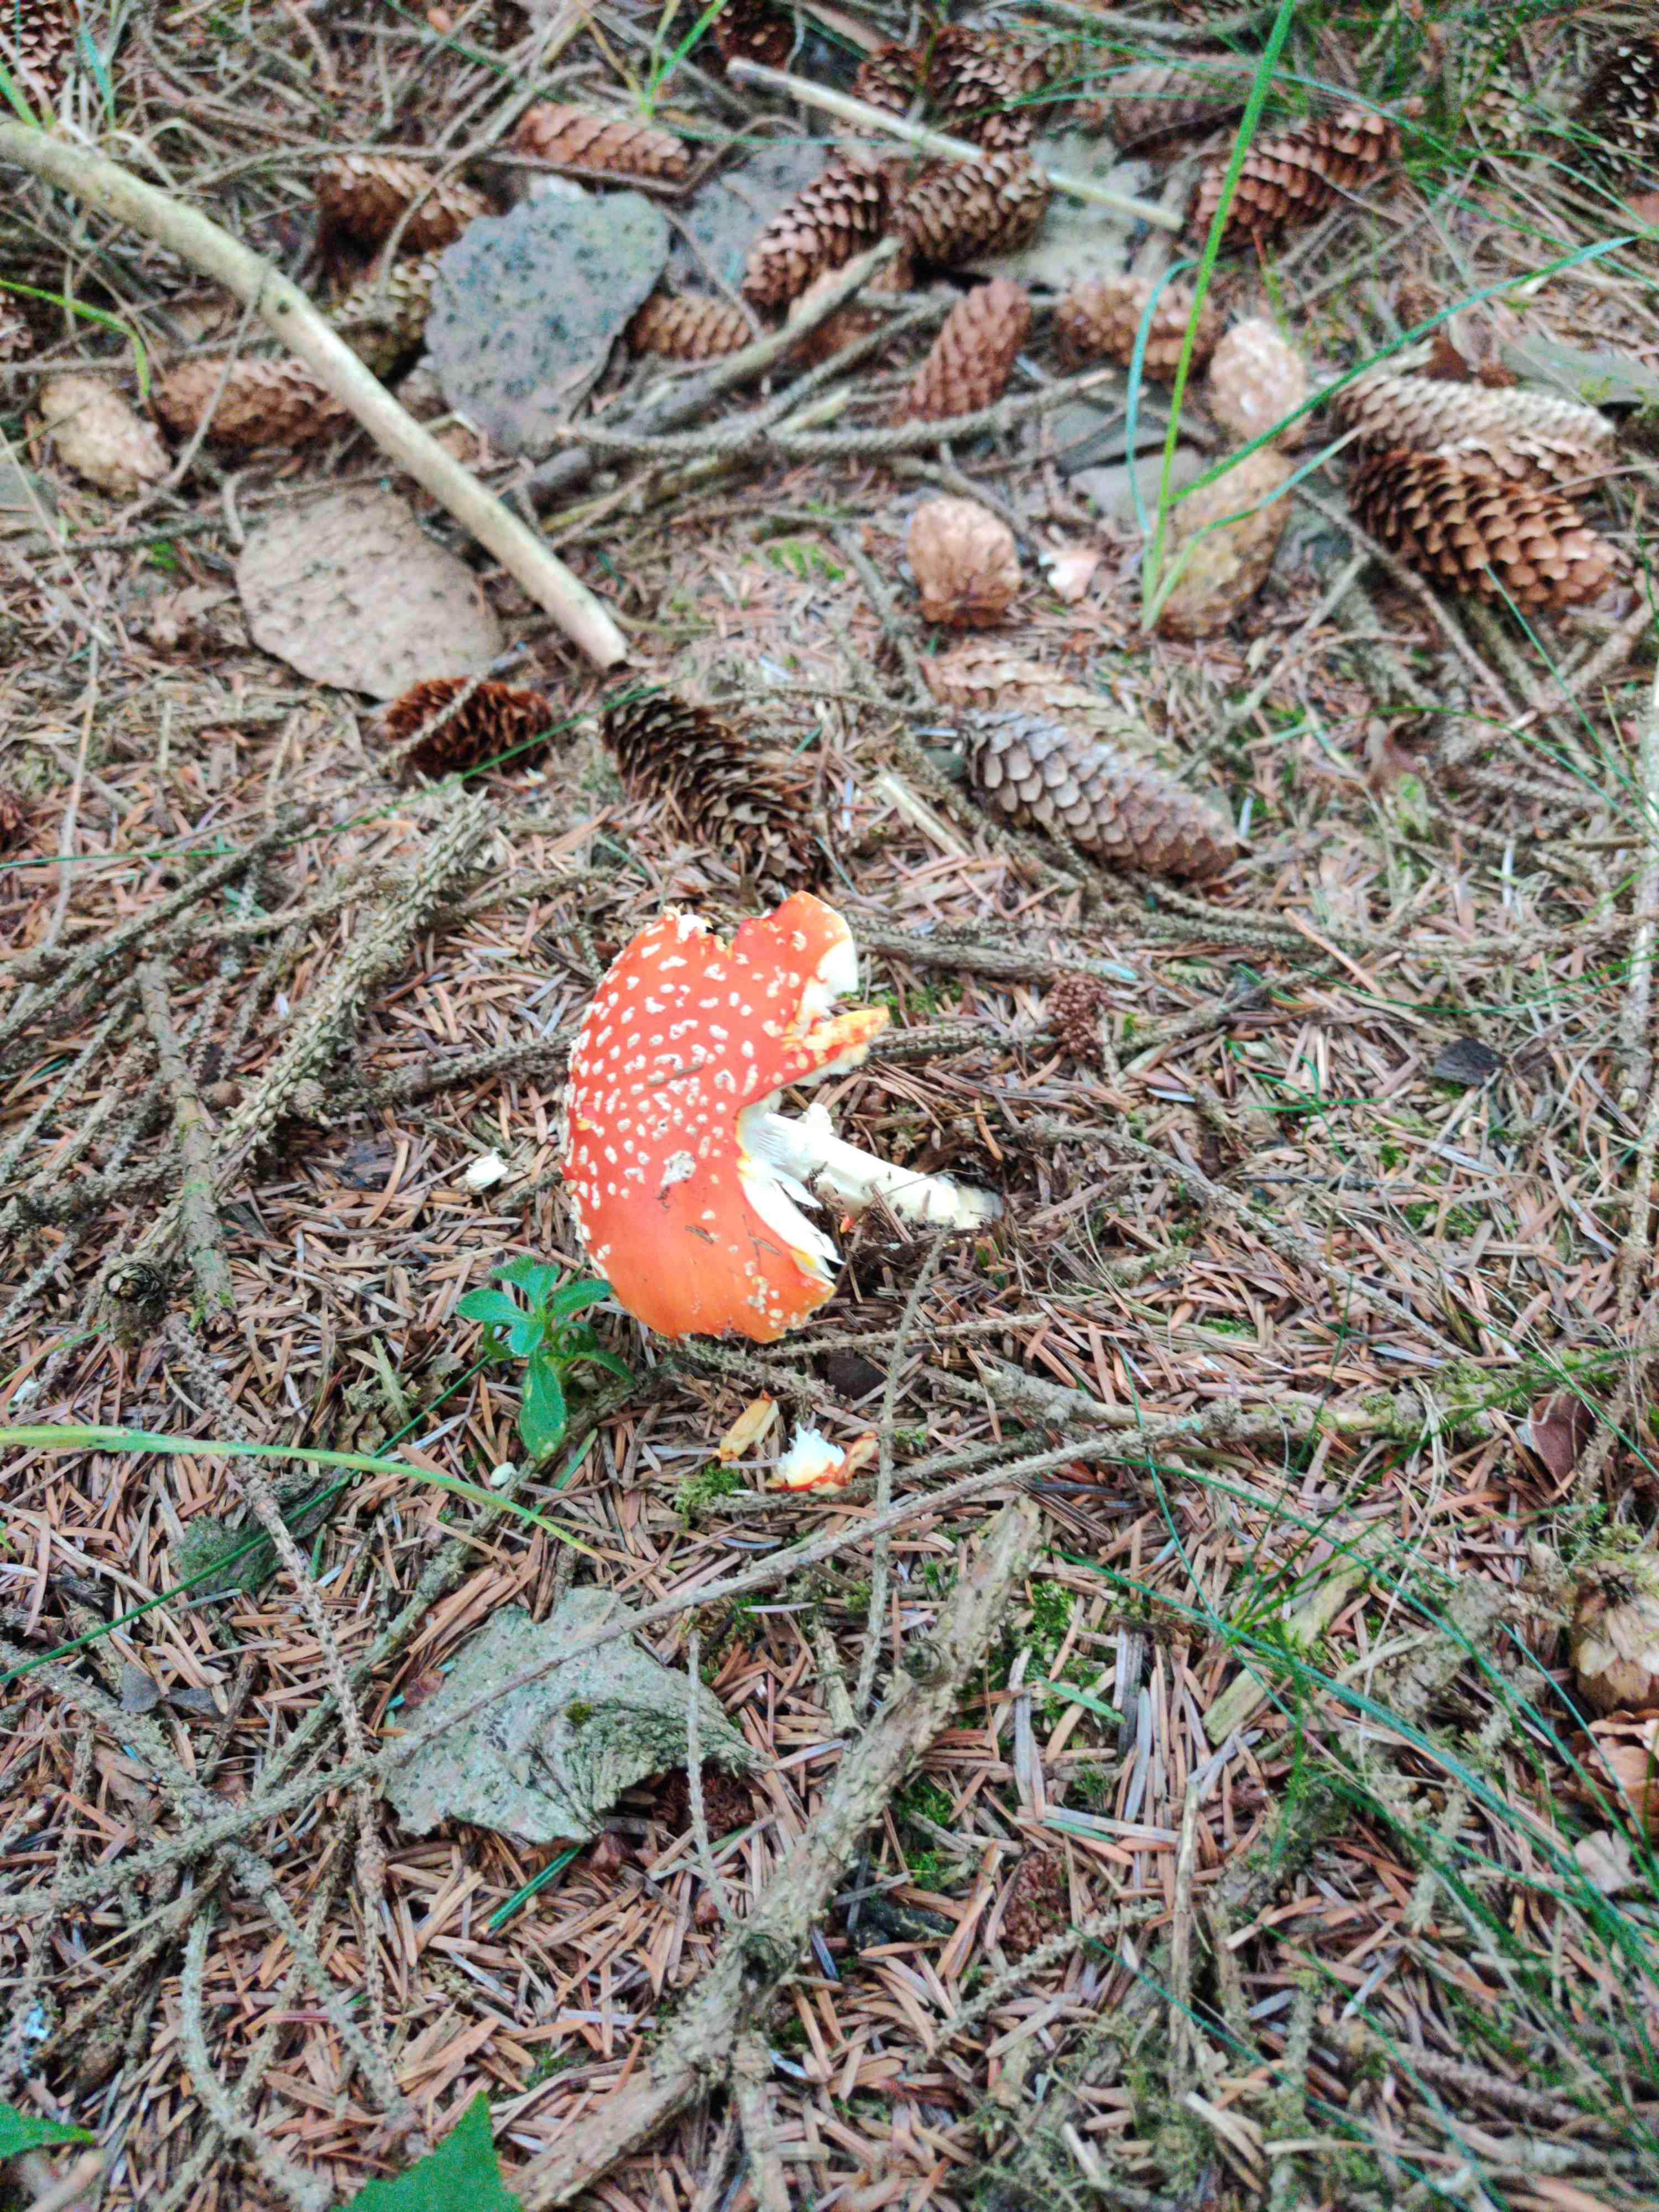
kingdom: Fungi
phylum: Basidiomycota
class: Agaricomycetes
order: Agaricales
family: Amanitaceae
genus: Amanita
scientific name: Amanita muscaria
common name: rød fluesvamp
